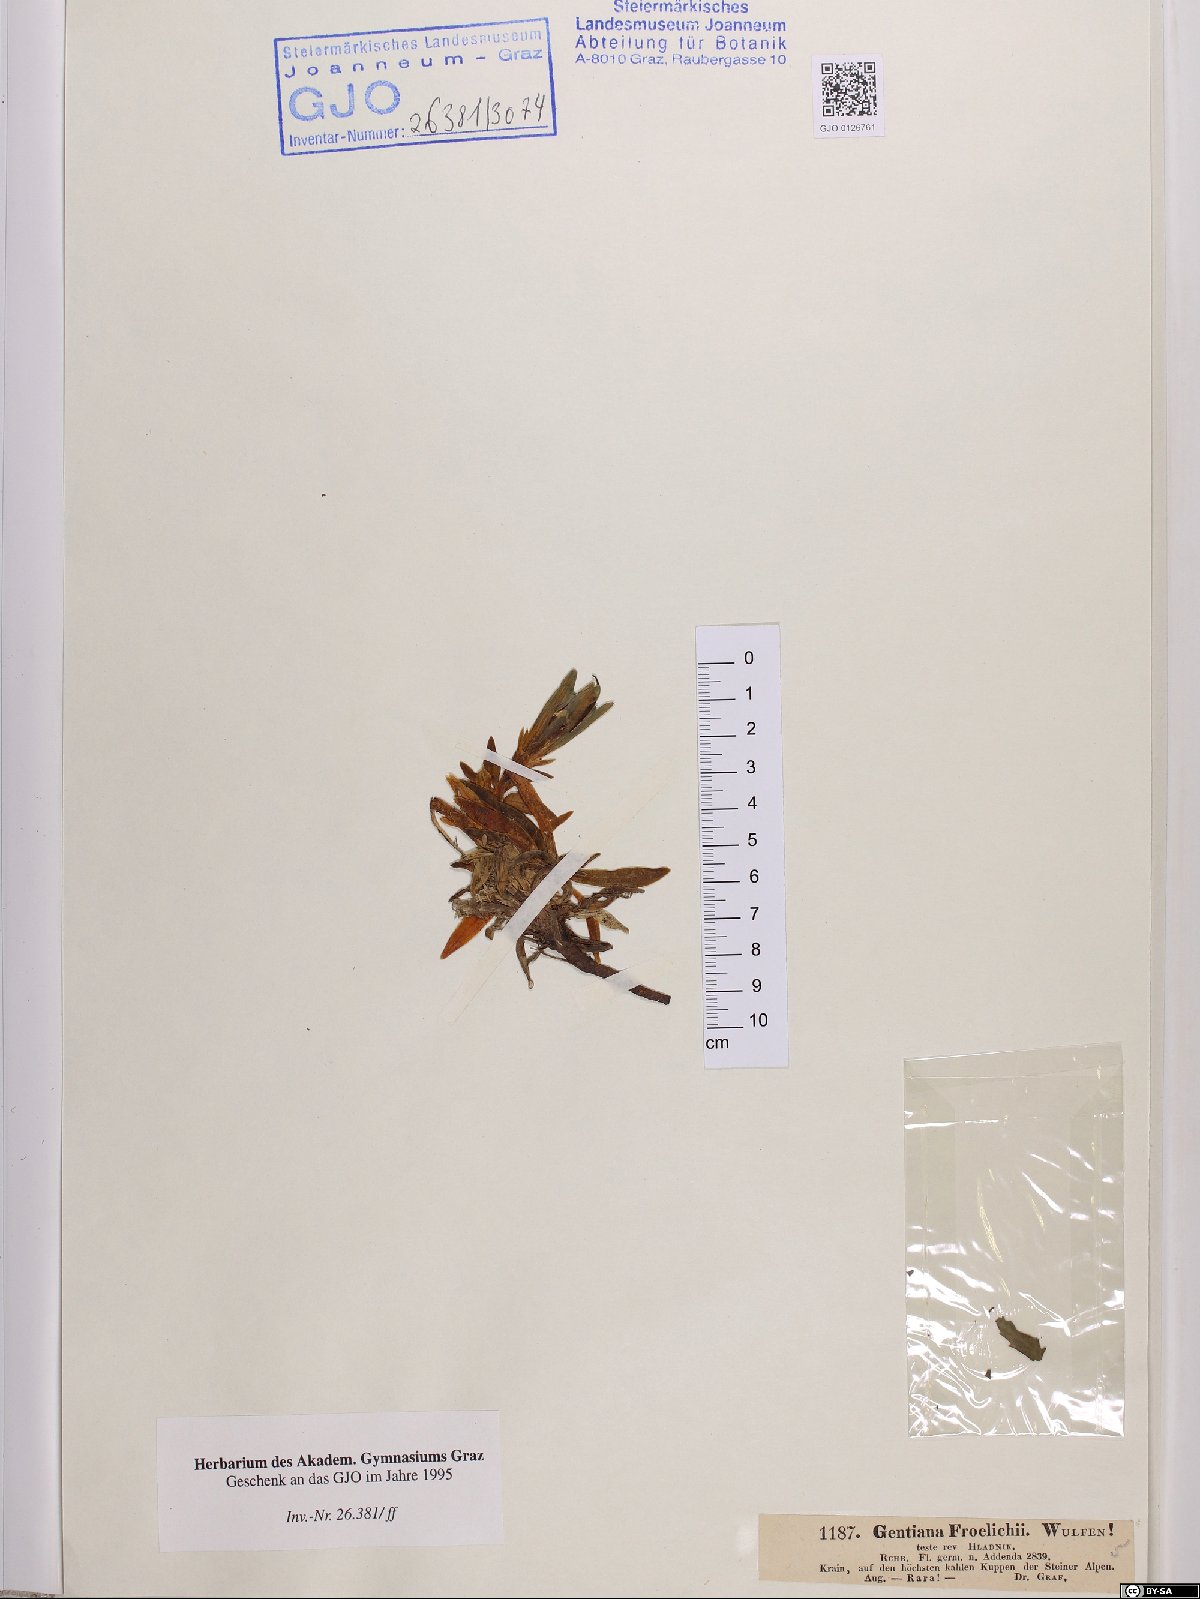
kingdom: Plantae
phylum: Tracheophyta
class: Magnoliopsida
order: Gentianales
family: Gentianaceae
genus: Gentiana
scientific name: Gentiana froelichii
